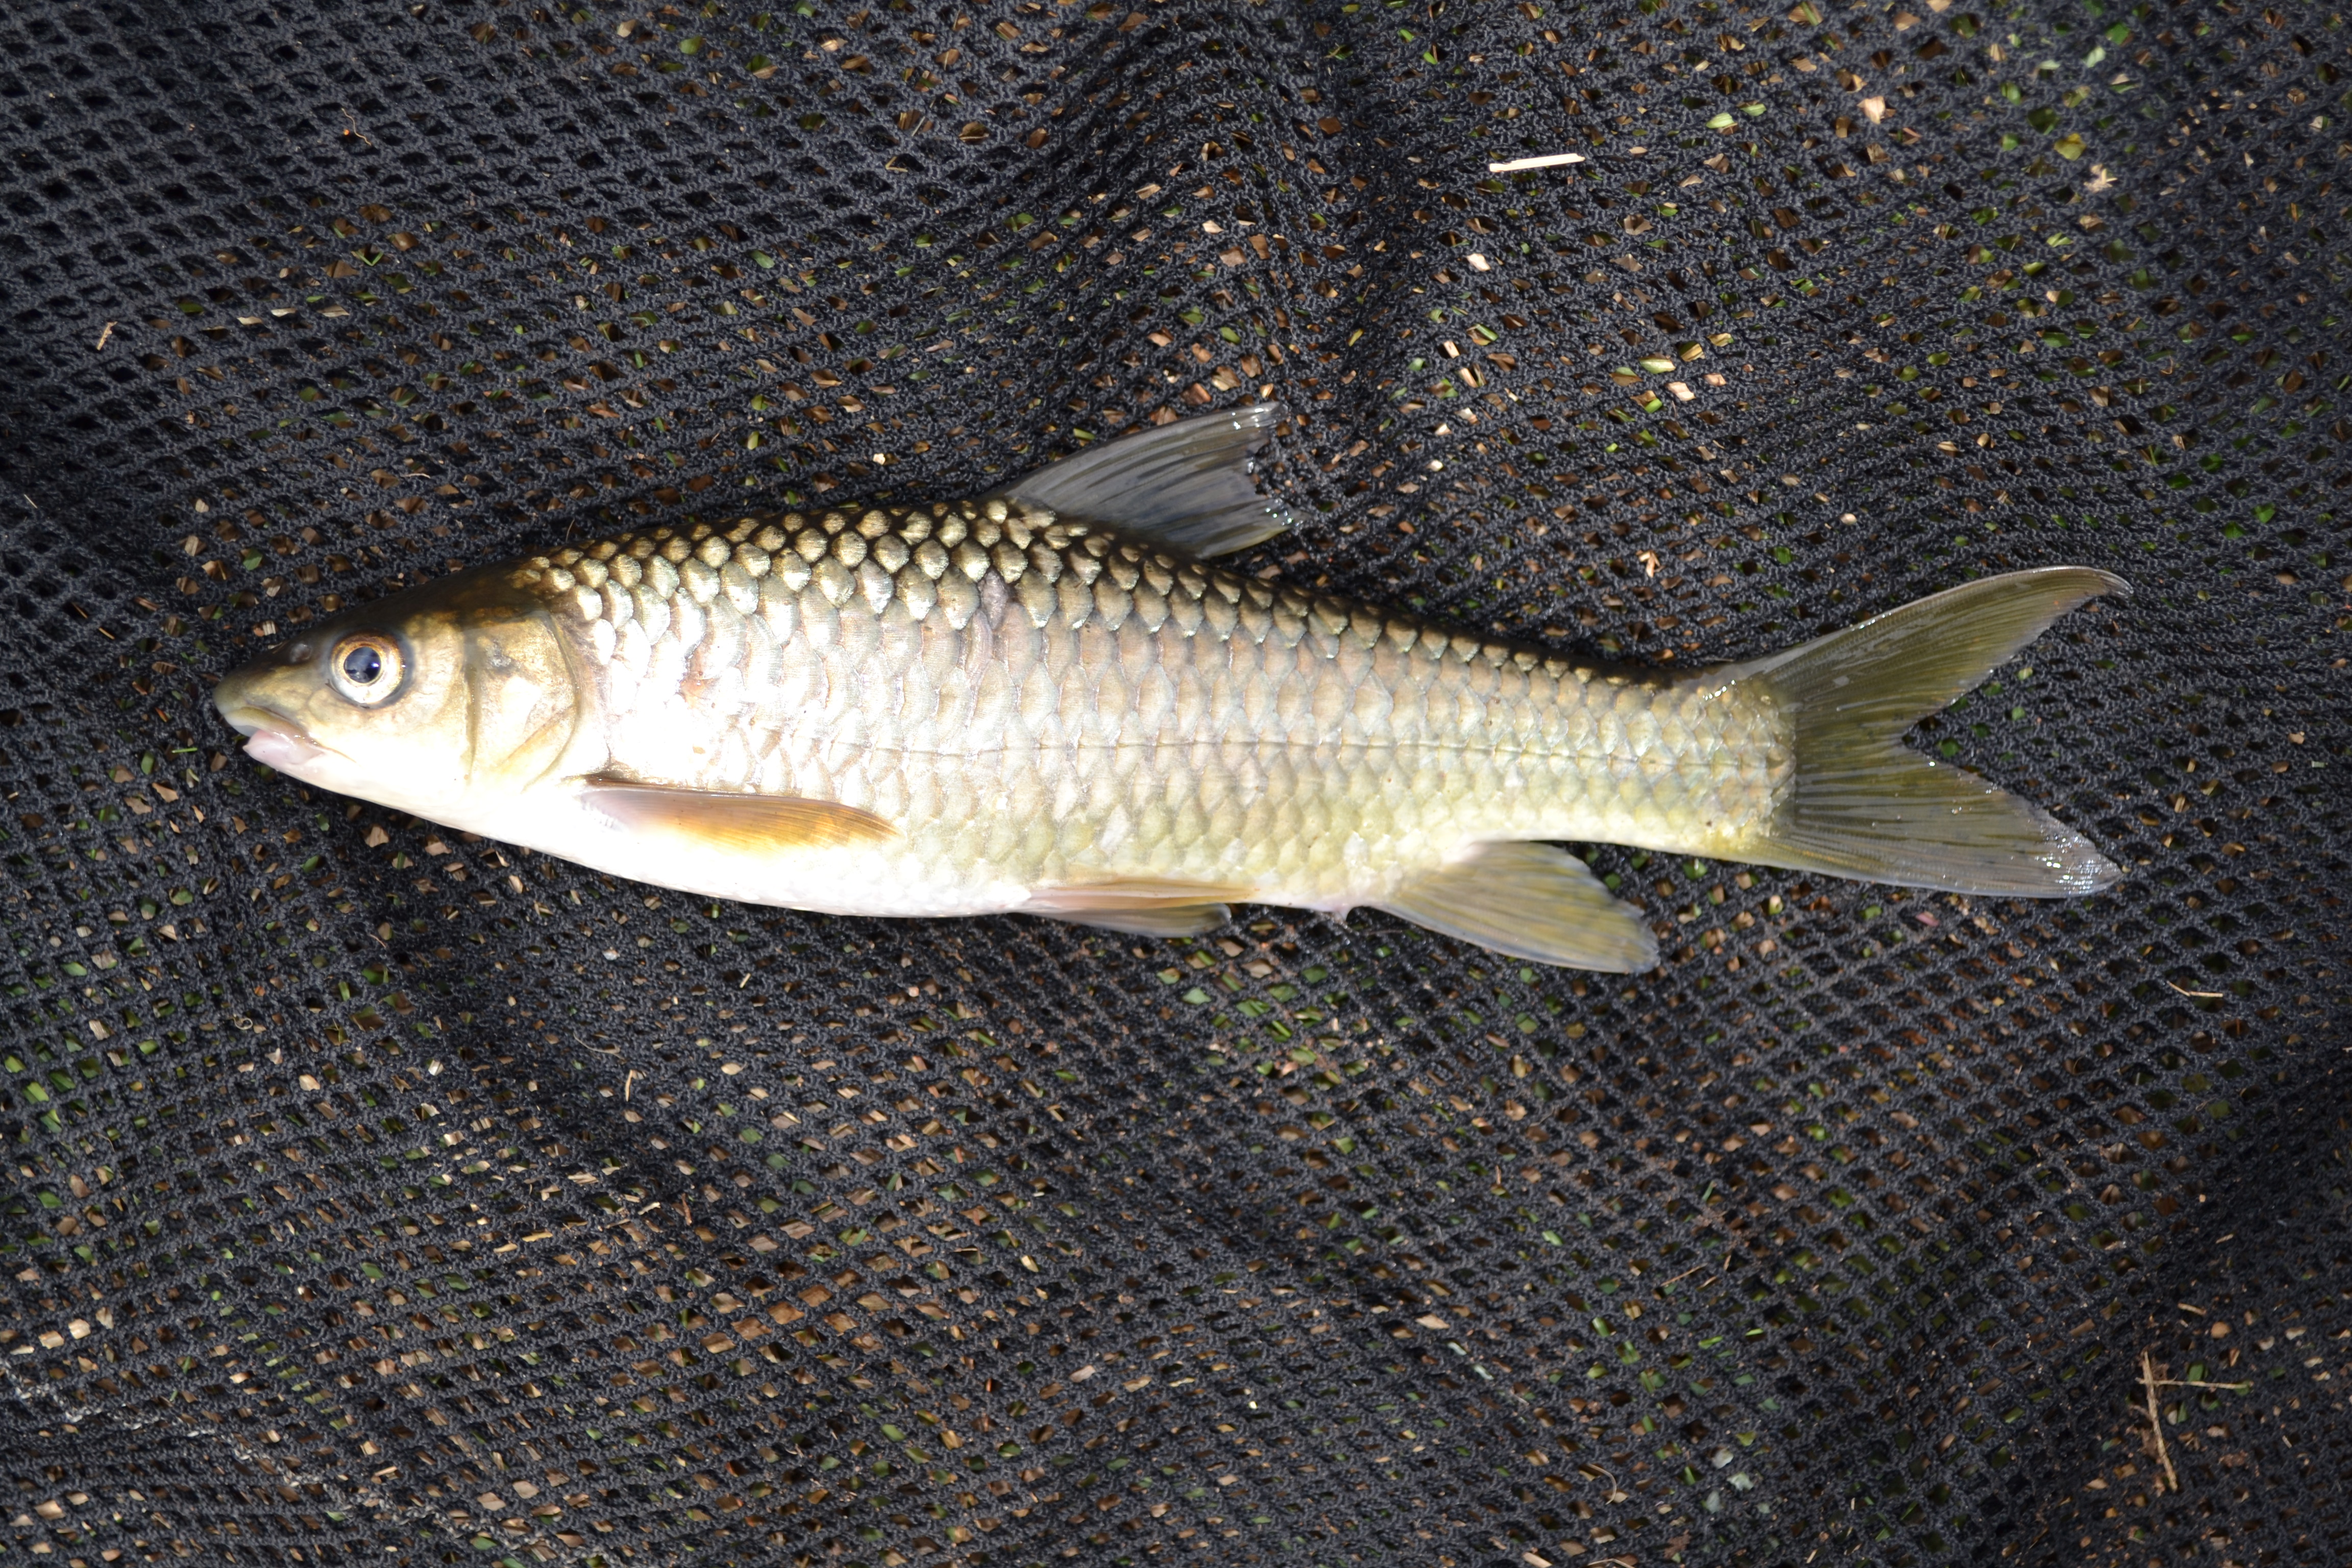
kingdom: Animalia
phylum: Chordata
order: Cypriniformes
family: Cyprinidae
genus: Labeobarbus
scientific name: Labeobarbus natalensis
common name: Scaly
